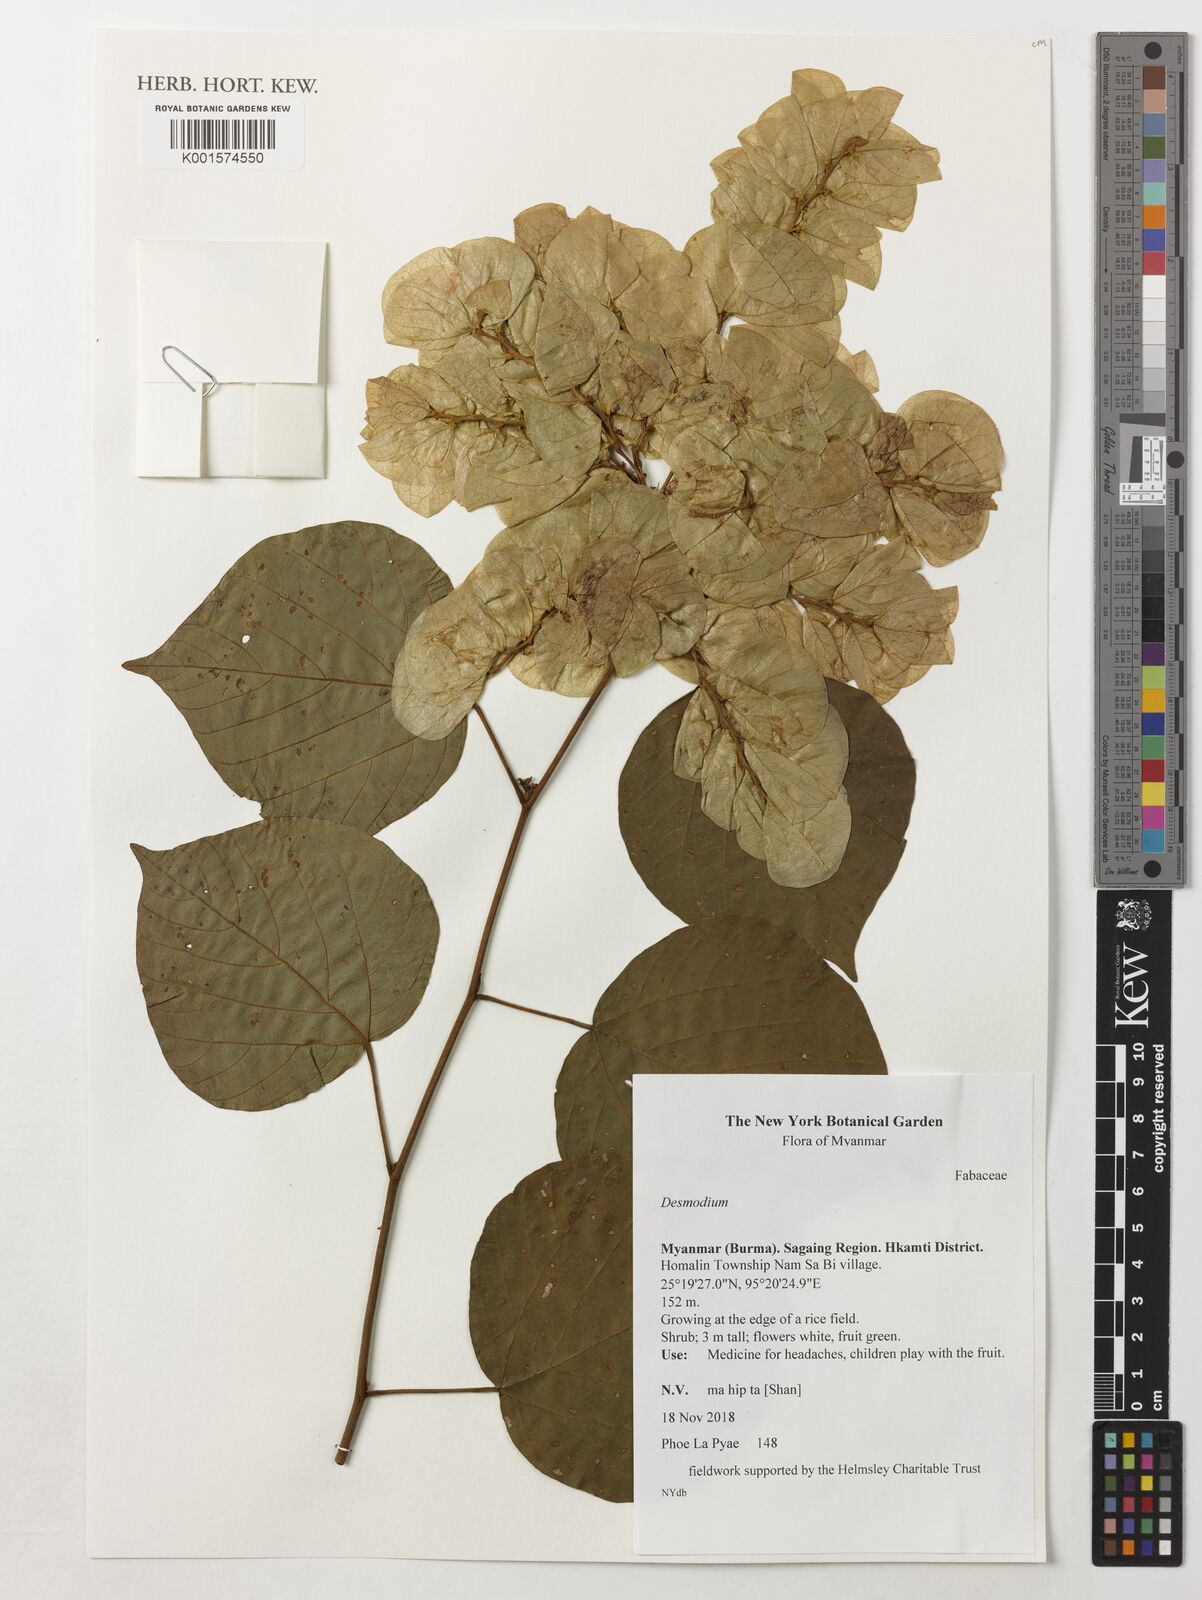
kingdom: Plantae
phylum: Tracheophyta
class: Magnoliopsida
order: Fabales
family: Fabaceae
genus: Desmodium
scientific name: Desmodium
